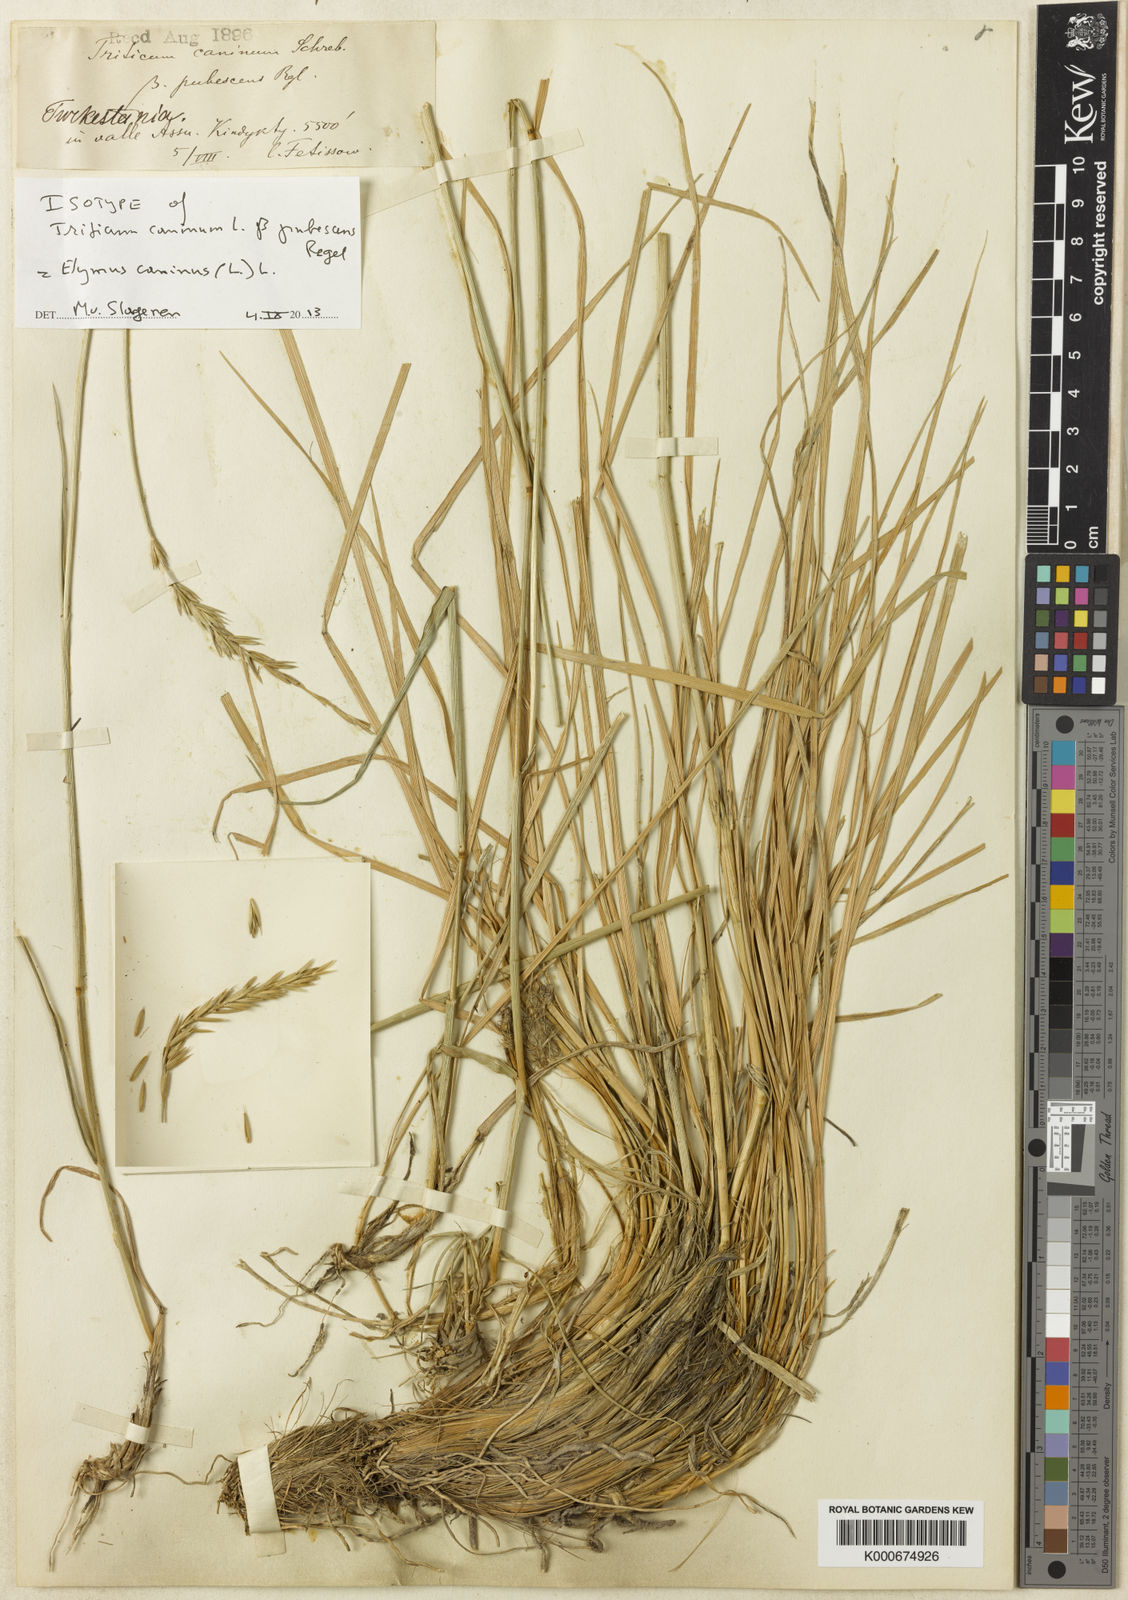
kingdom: Plantae
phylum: Tracheophyta
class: Liliopsida
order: Poales
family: Poaceae
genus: Elymus
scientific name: Elymus caninus
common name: Bearded couch
